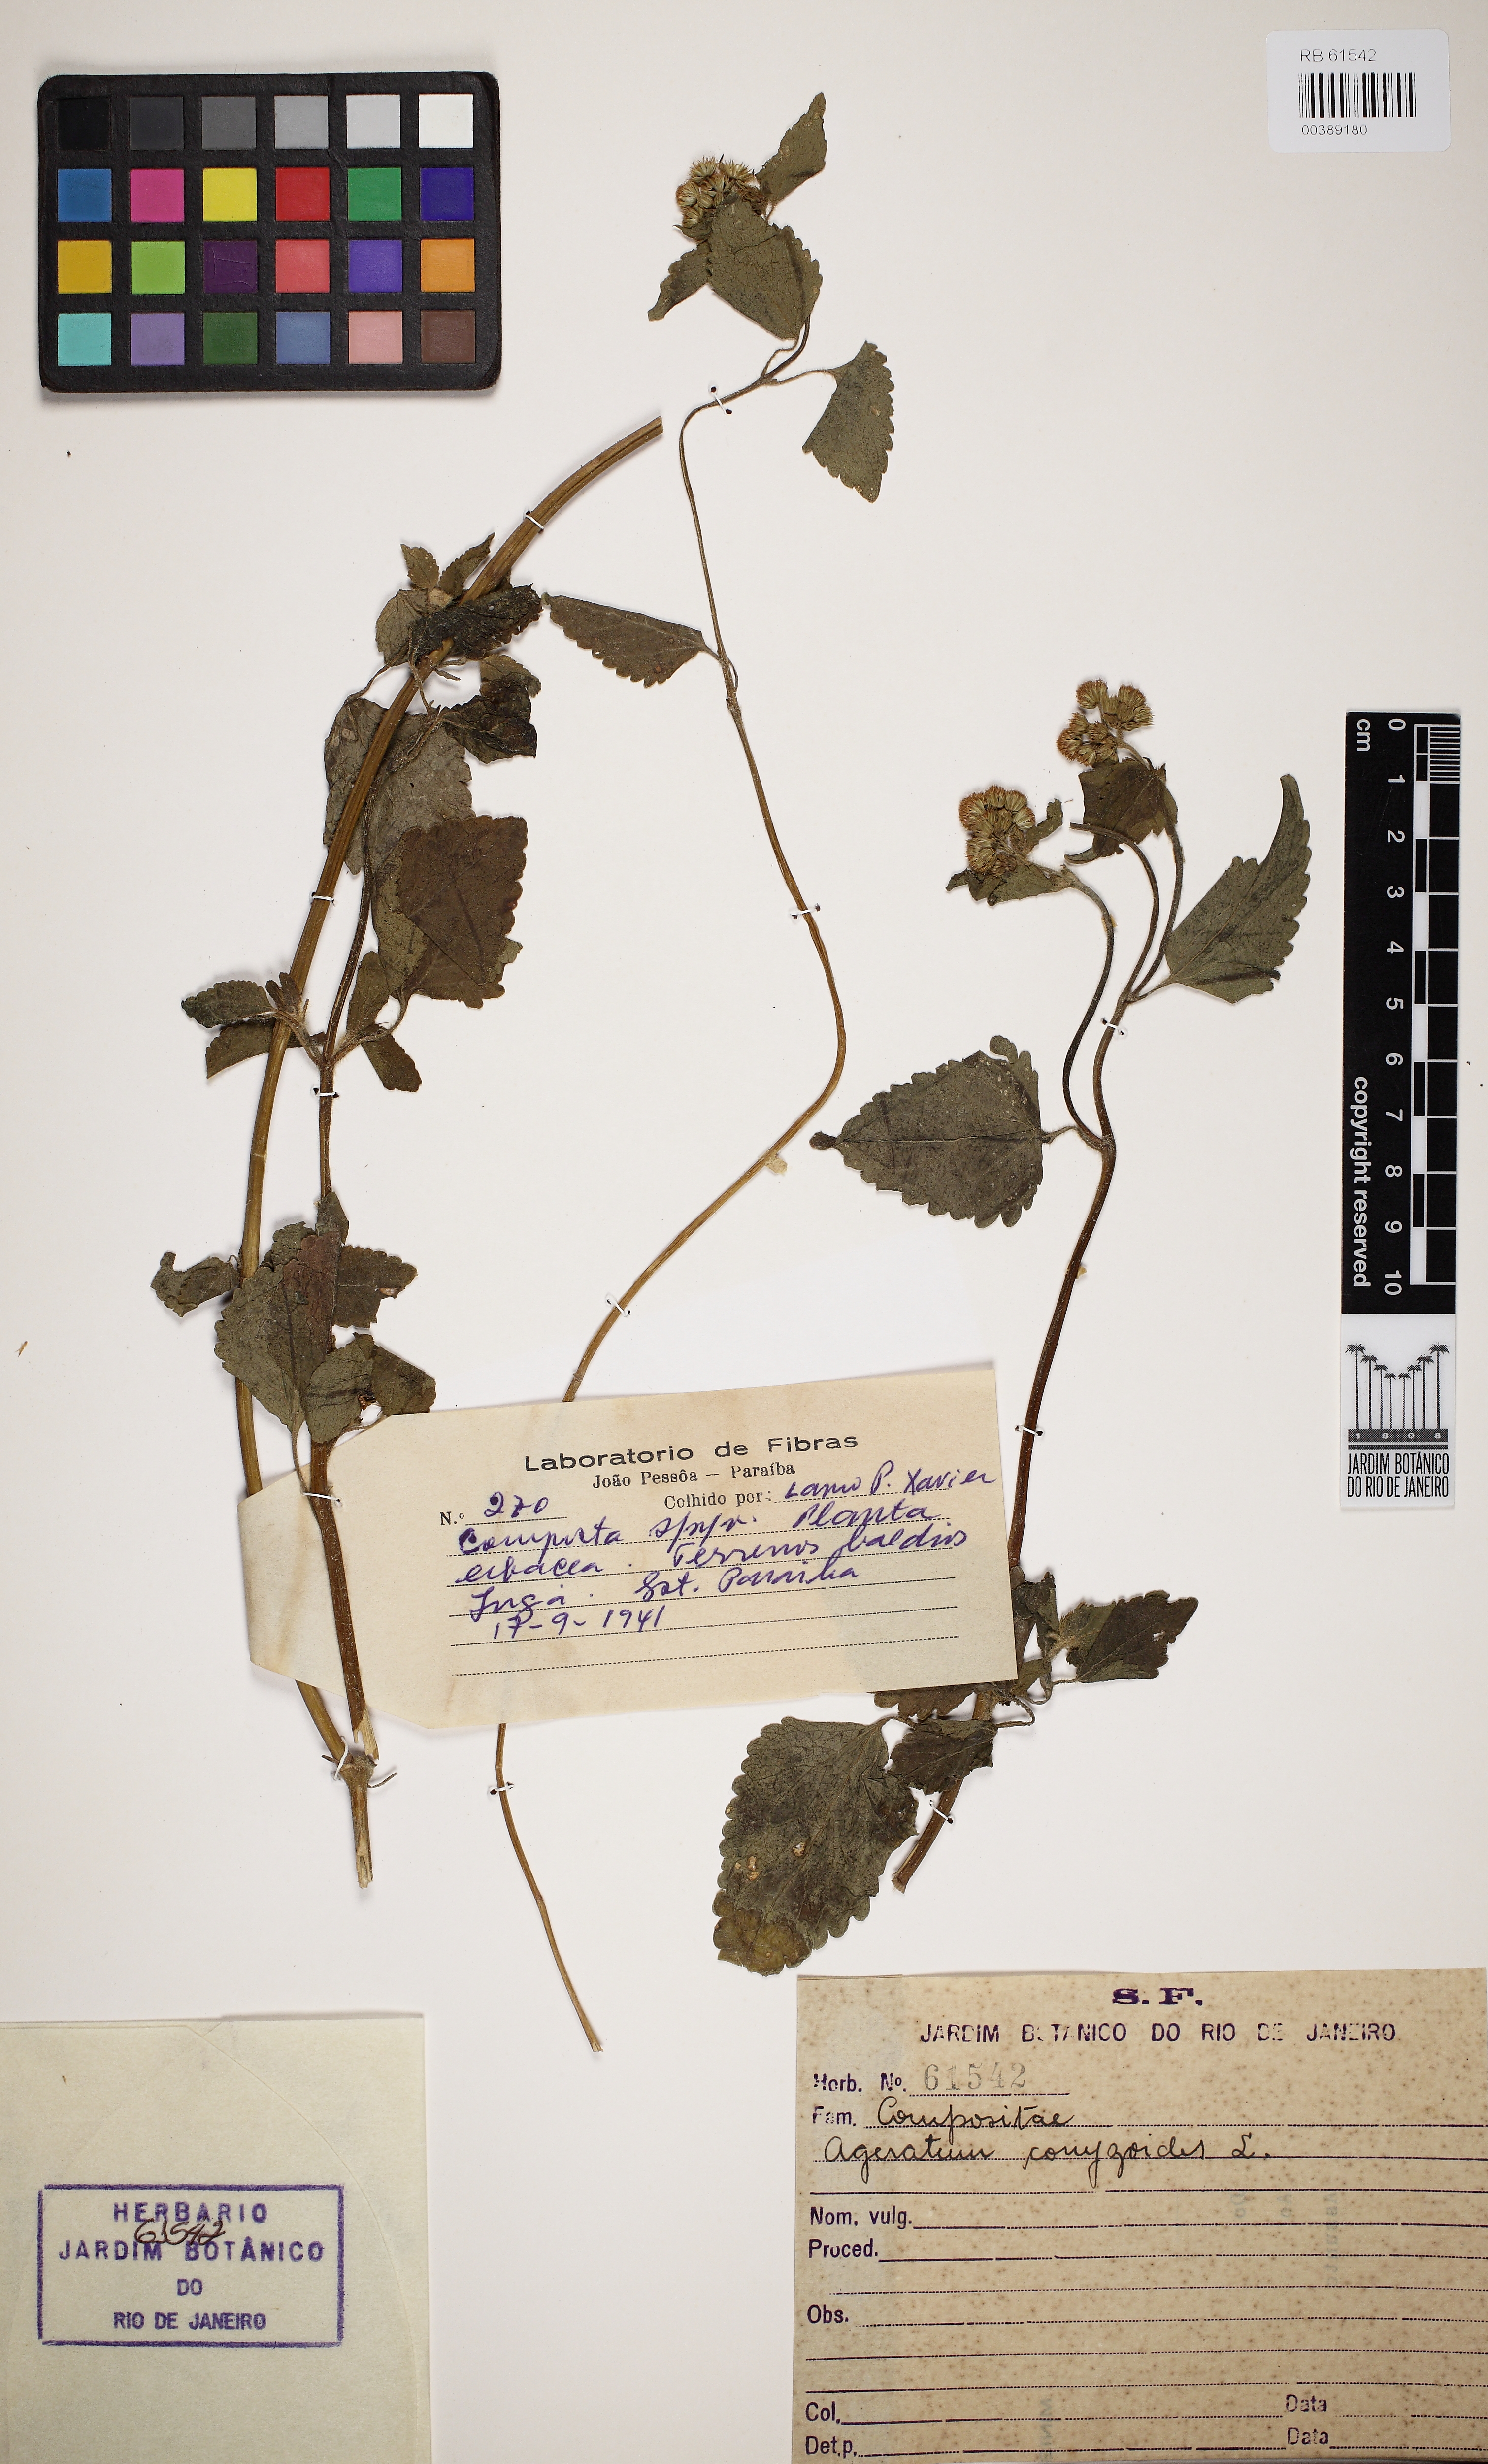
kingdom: Plantae
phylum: Tracheophyta
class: Magnoliopsida
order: Asterales
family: Asteraceae
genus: Ageratum
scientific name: Ageratum conyzoides
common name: Tropical whiteweed
